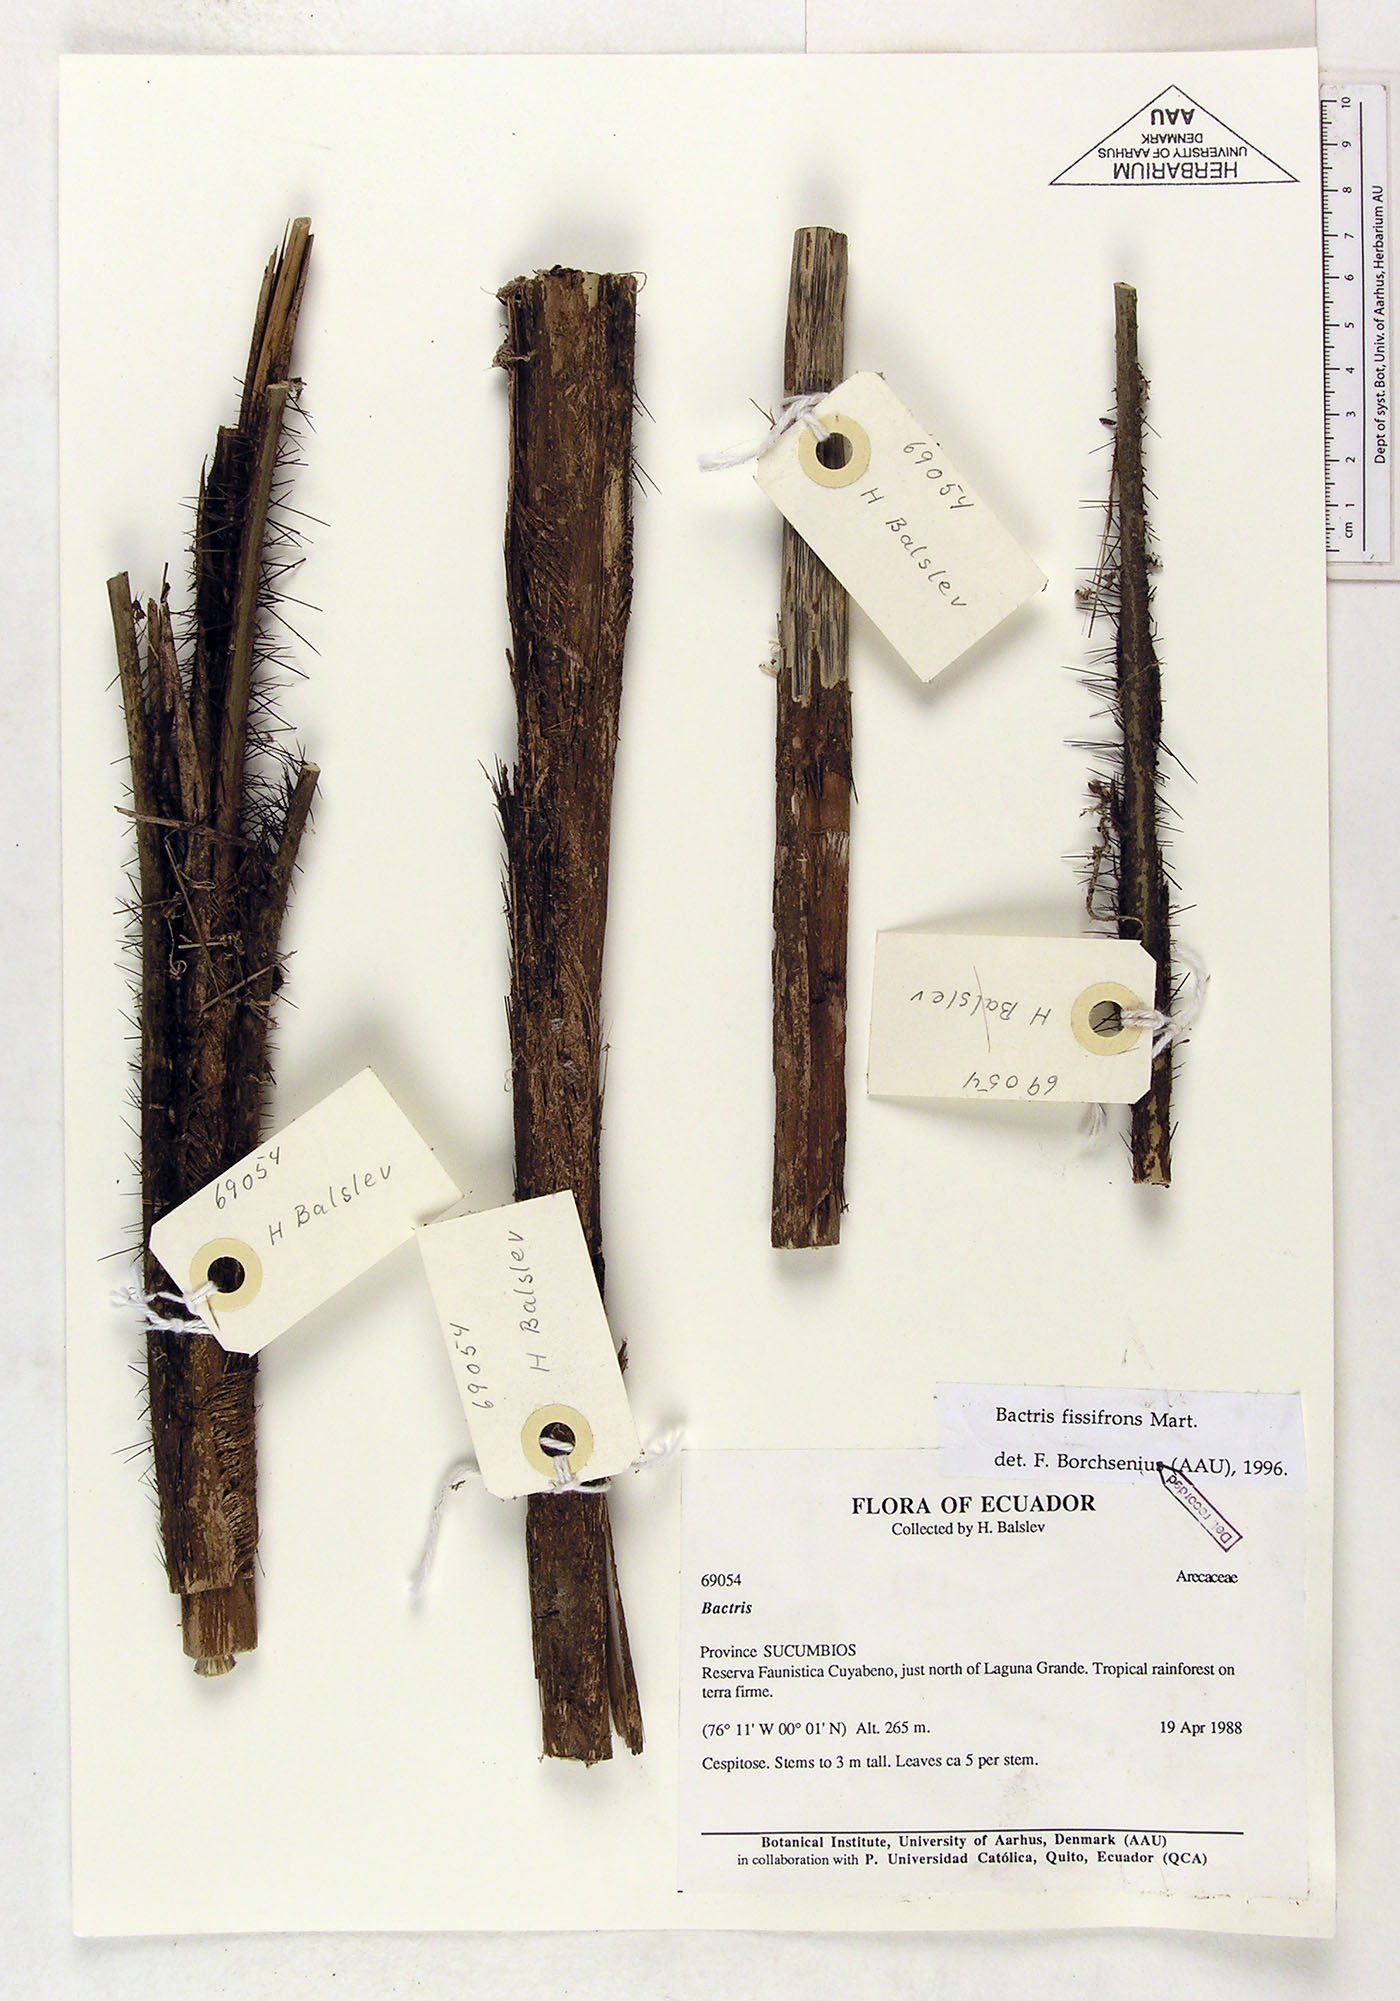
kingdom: Plantae
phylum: Tracheophyta
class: Liliopsida
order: Arecales
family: Arecaceae
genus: Bactris
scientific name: Bactris fissifrons
